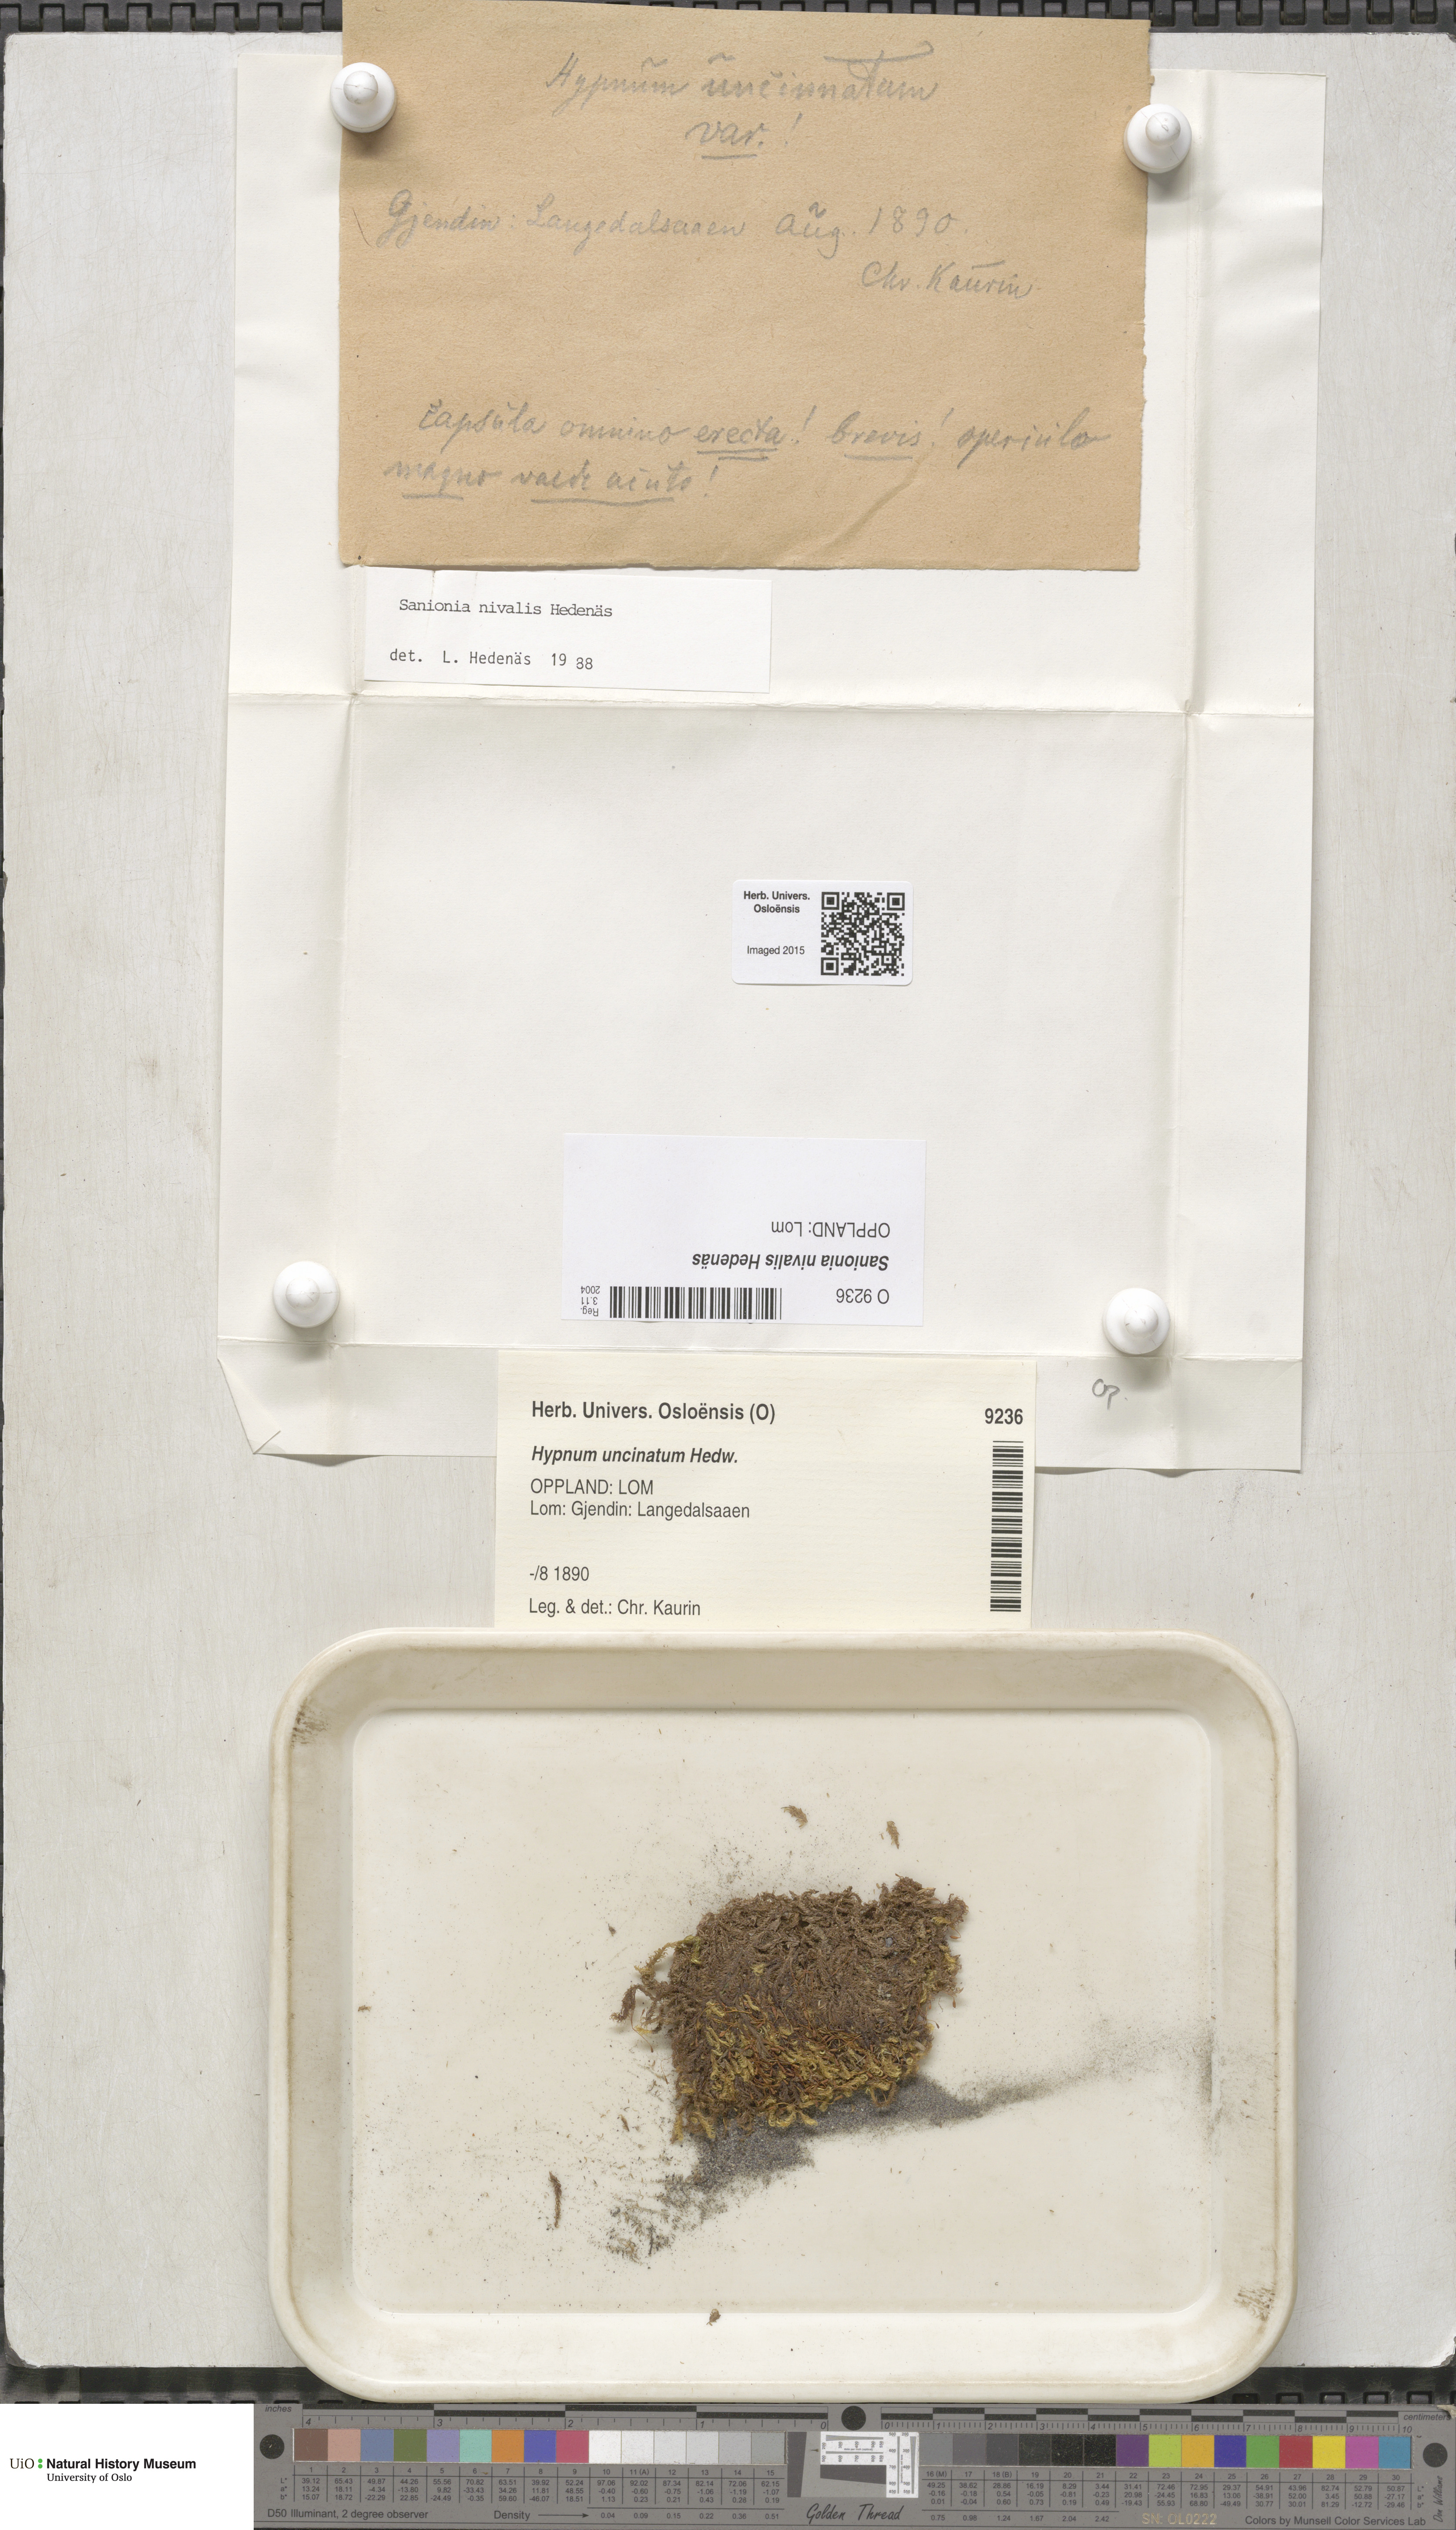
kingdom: Plantae
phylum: Bryophyta
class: Bryopsida
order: Hypnales
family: Scorpidiaceae
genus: Sanionia
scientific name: Sanionia nivalis
